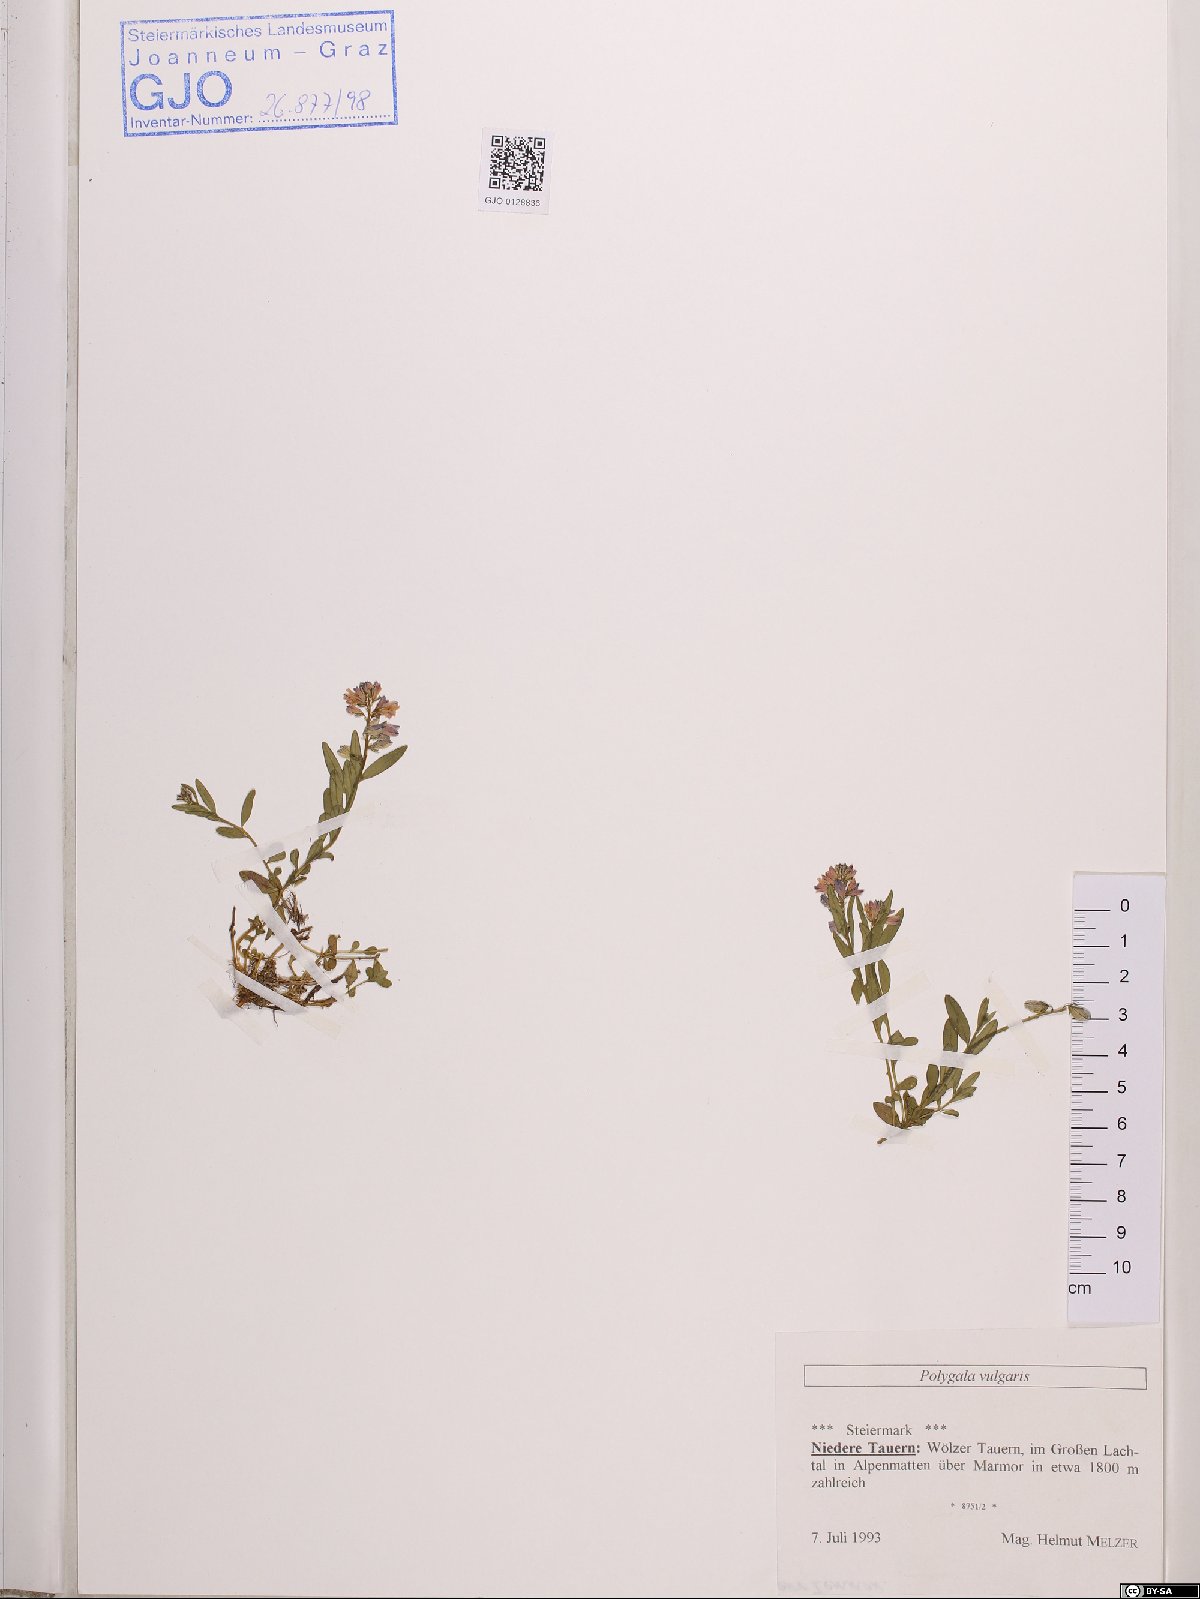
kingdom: Plantae
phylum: Tracheophyta
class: Magnoliopsida
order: Fabales
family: Polygalaceae
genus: Polygala
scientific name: Polygala vulgaris
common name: Common milkwort
